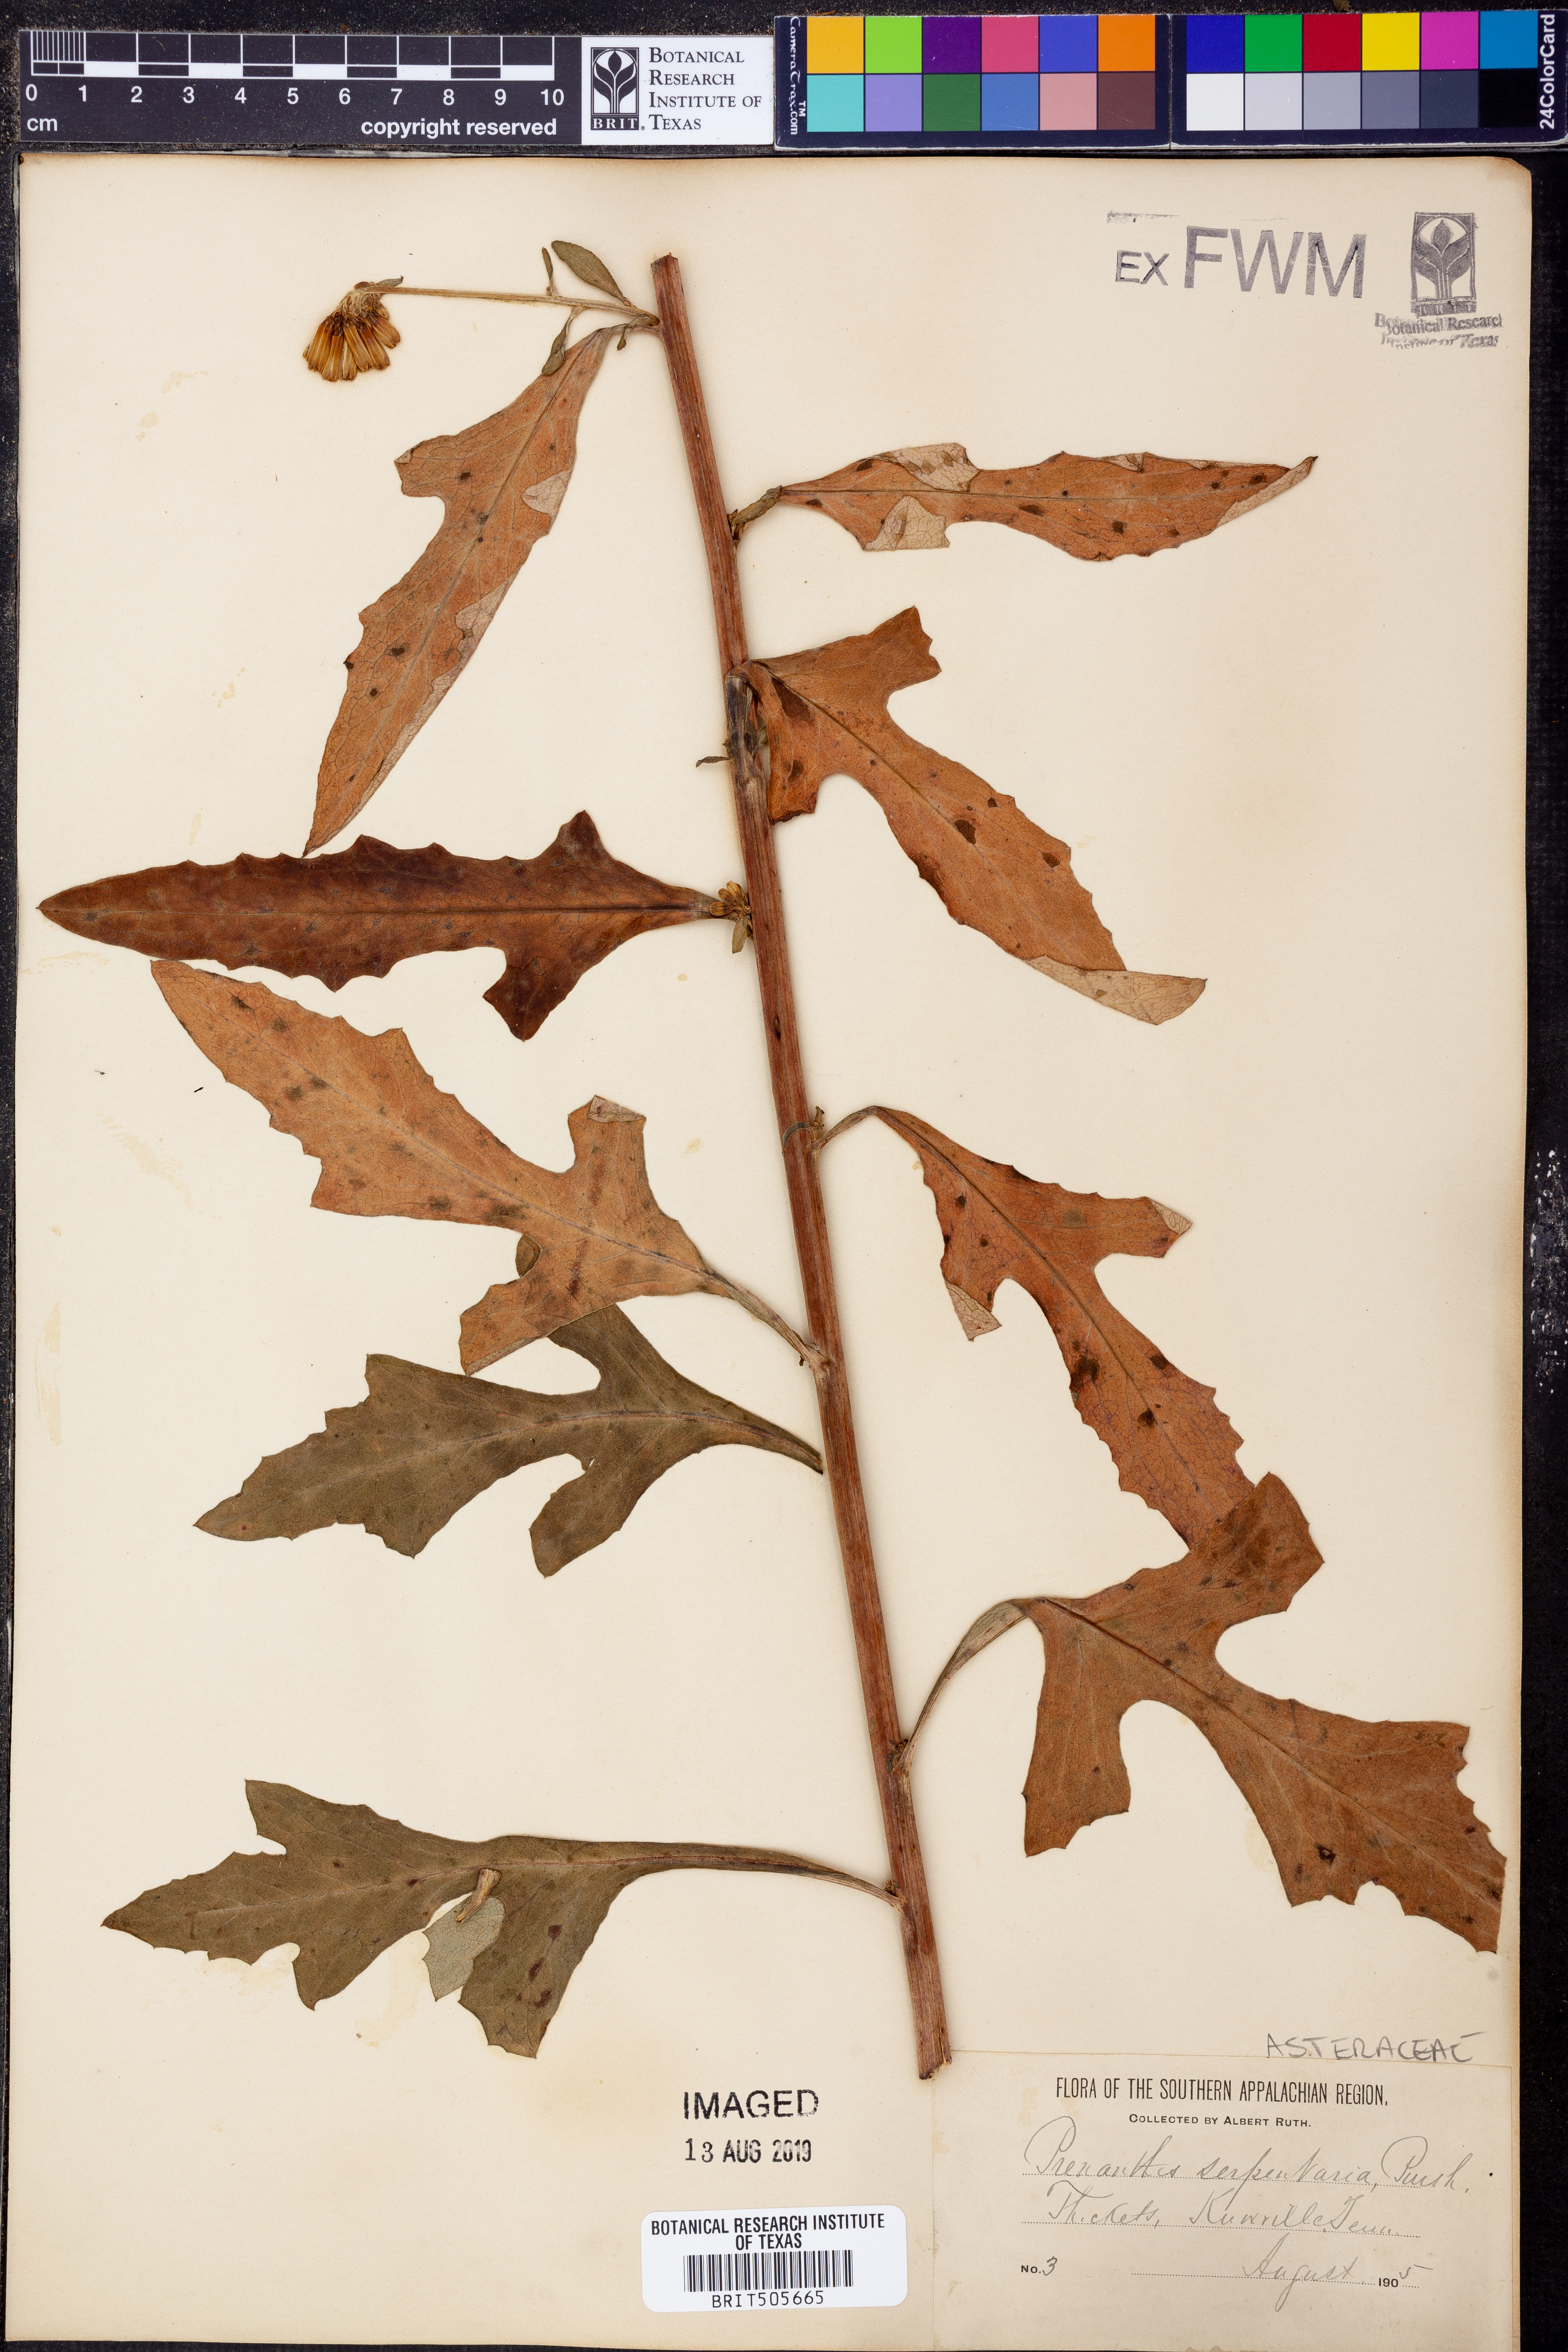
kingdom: Plantae
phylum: Tracheophyta
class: Magnoliopsida
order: Asterales
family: Asteraceae
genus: Nabalus
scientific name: Nabalus serpentarius
